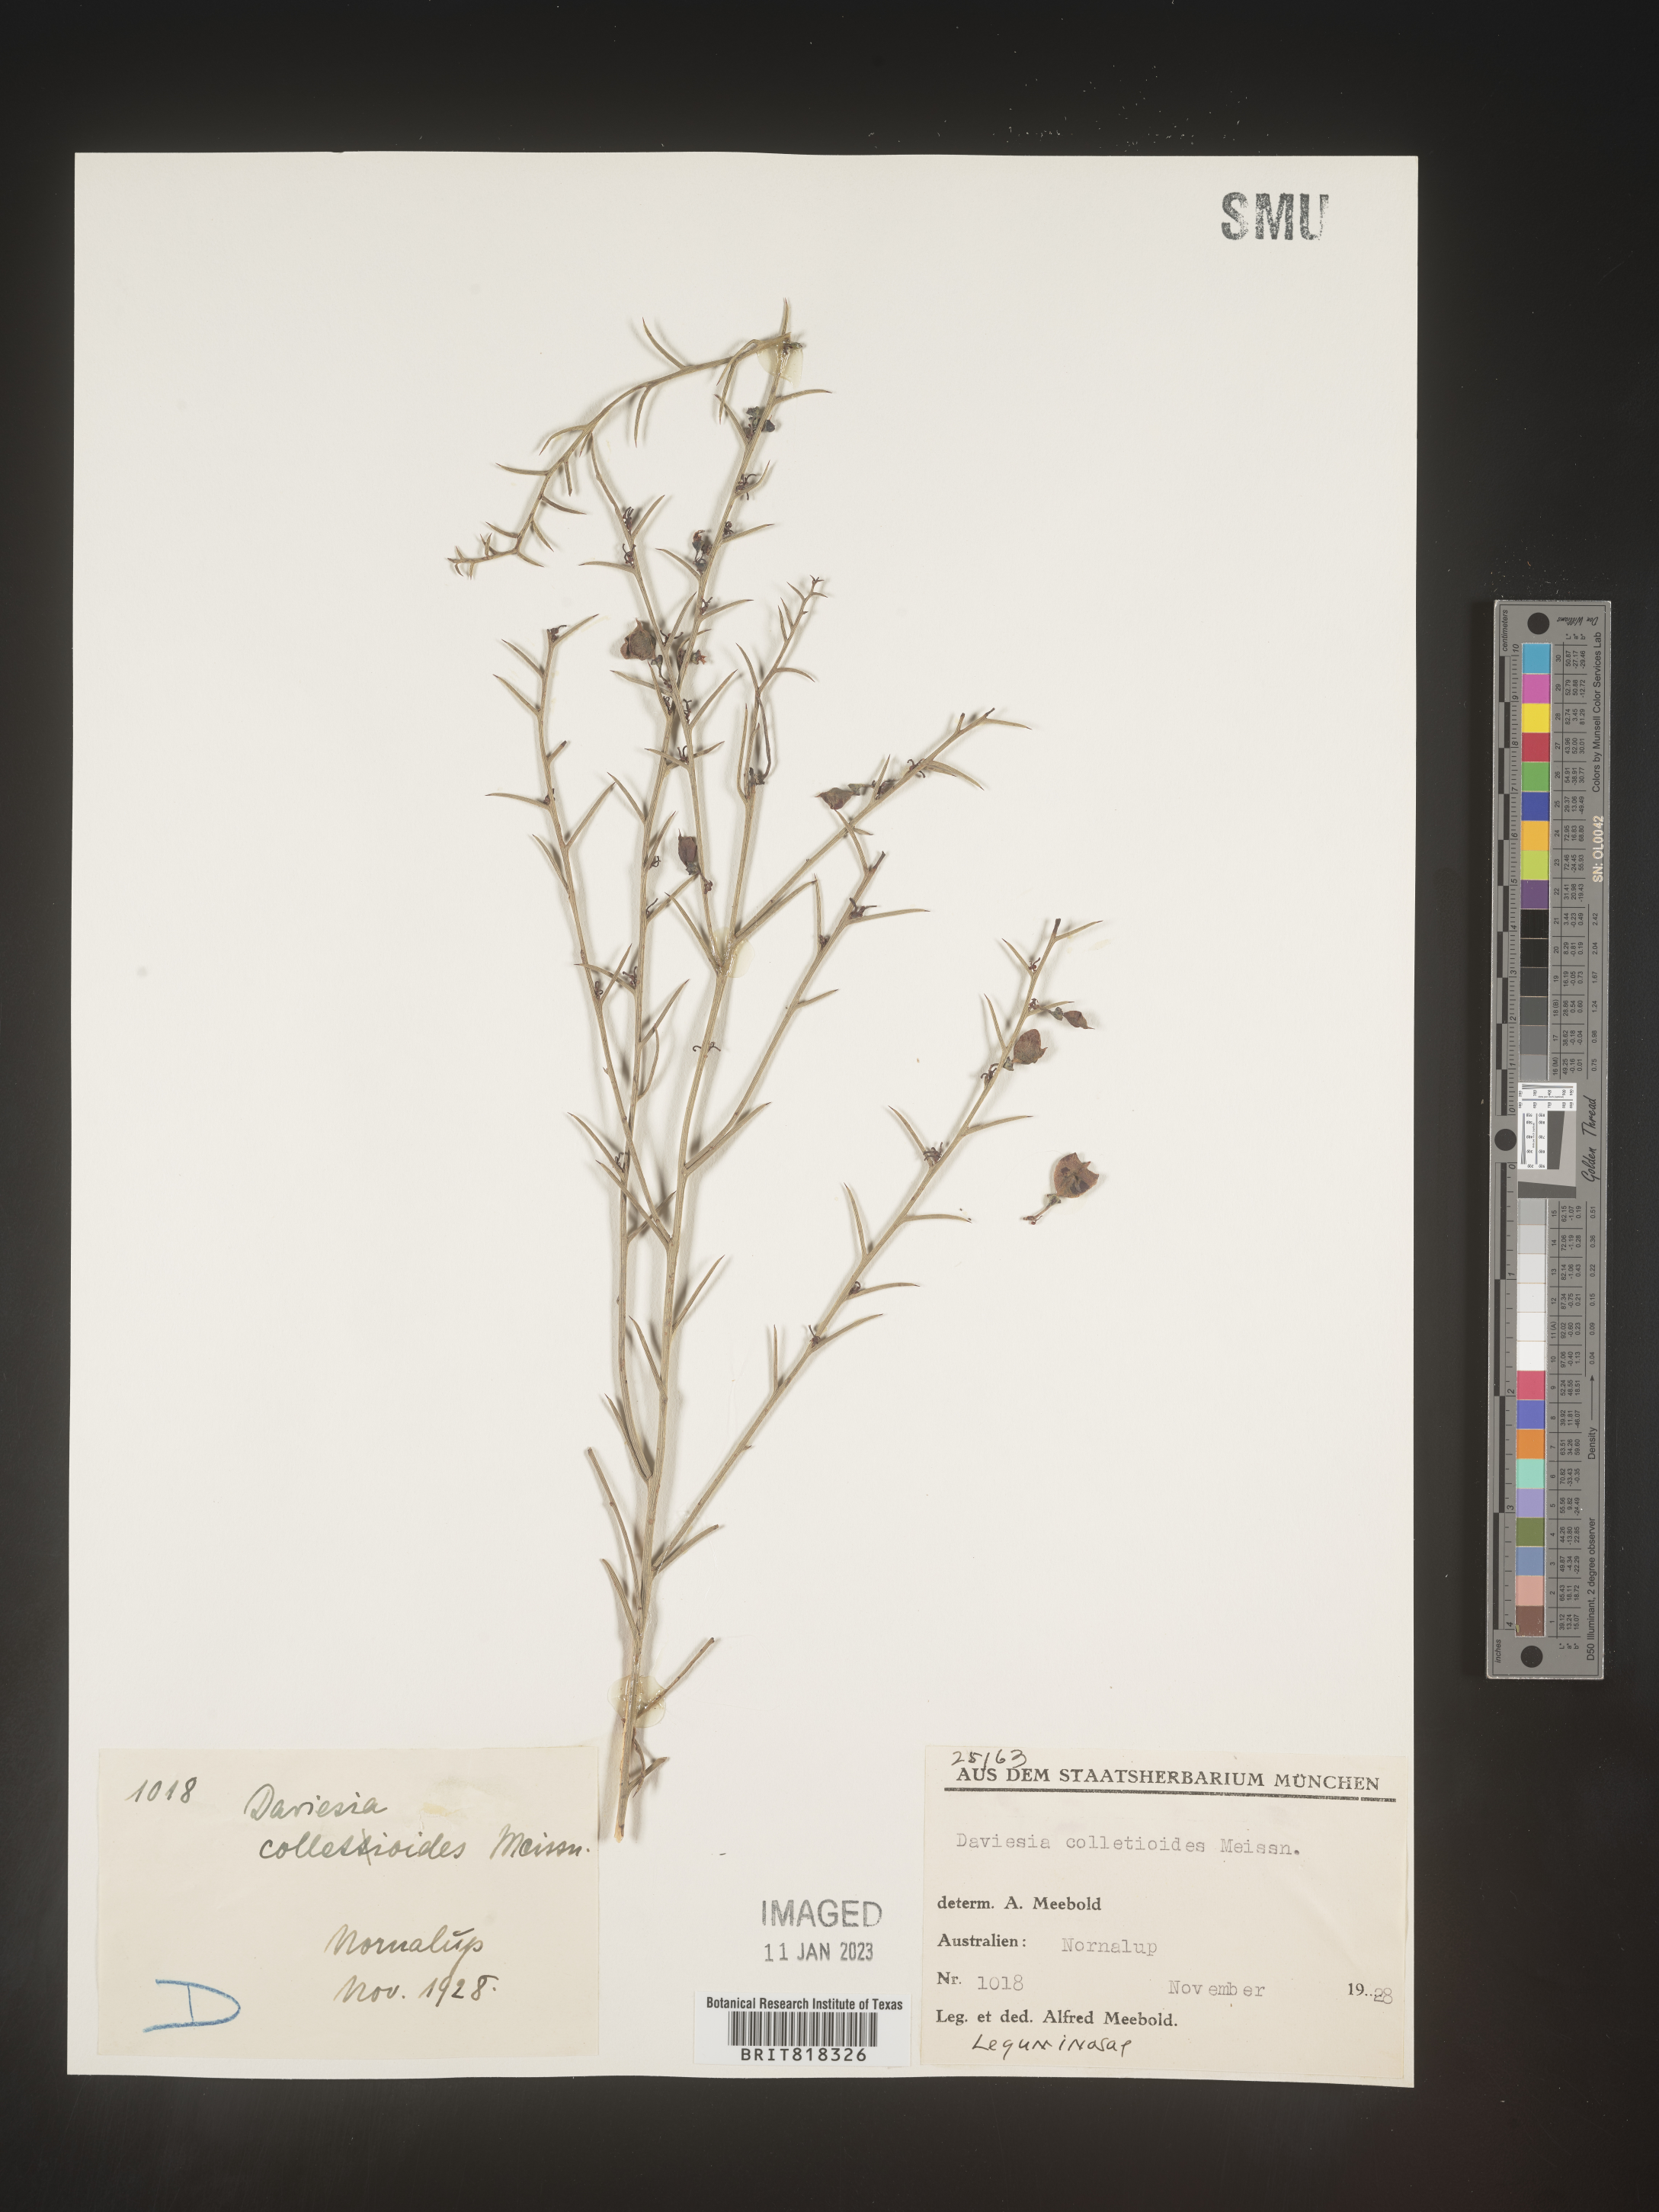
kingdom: Plantae
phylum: Tracheophyta
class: Magnoliopsida
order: Fabales
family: Fabaceae
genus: Daviesia
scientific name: Daviesia
